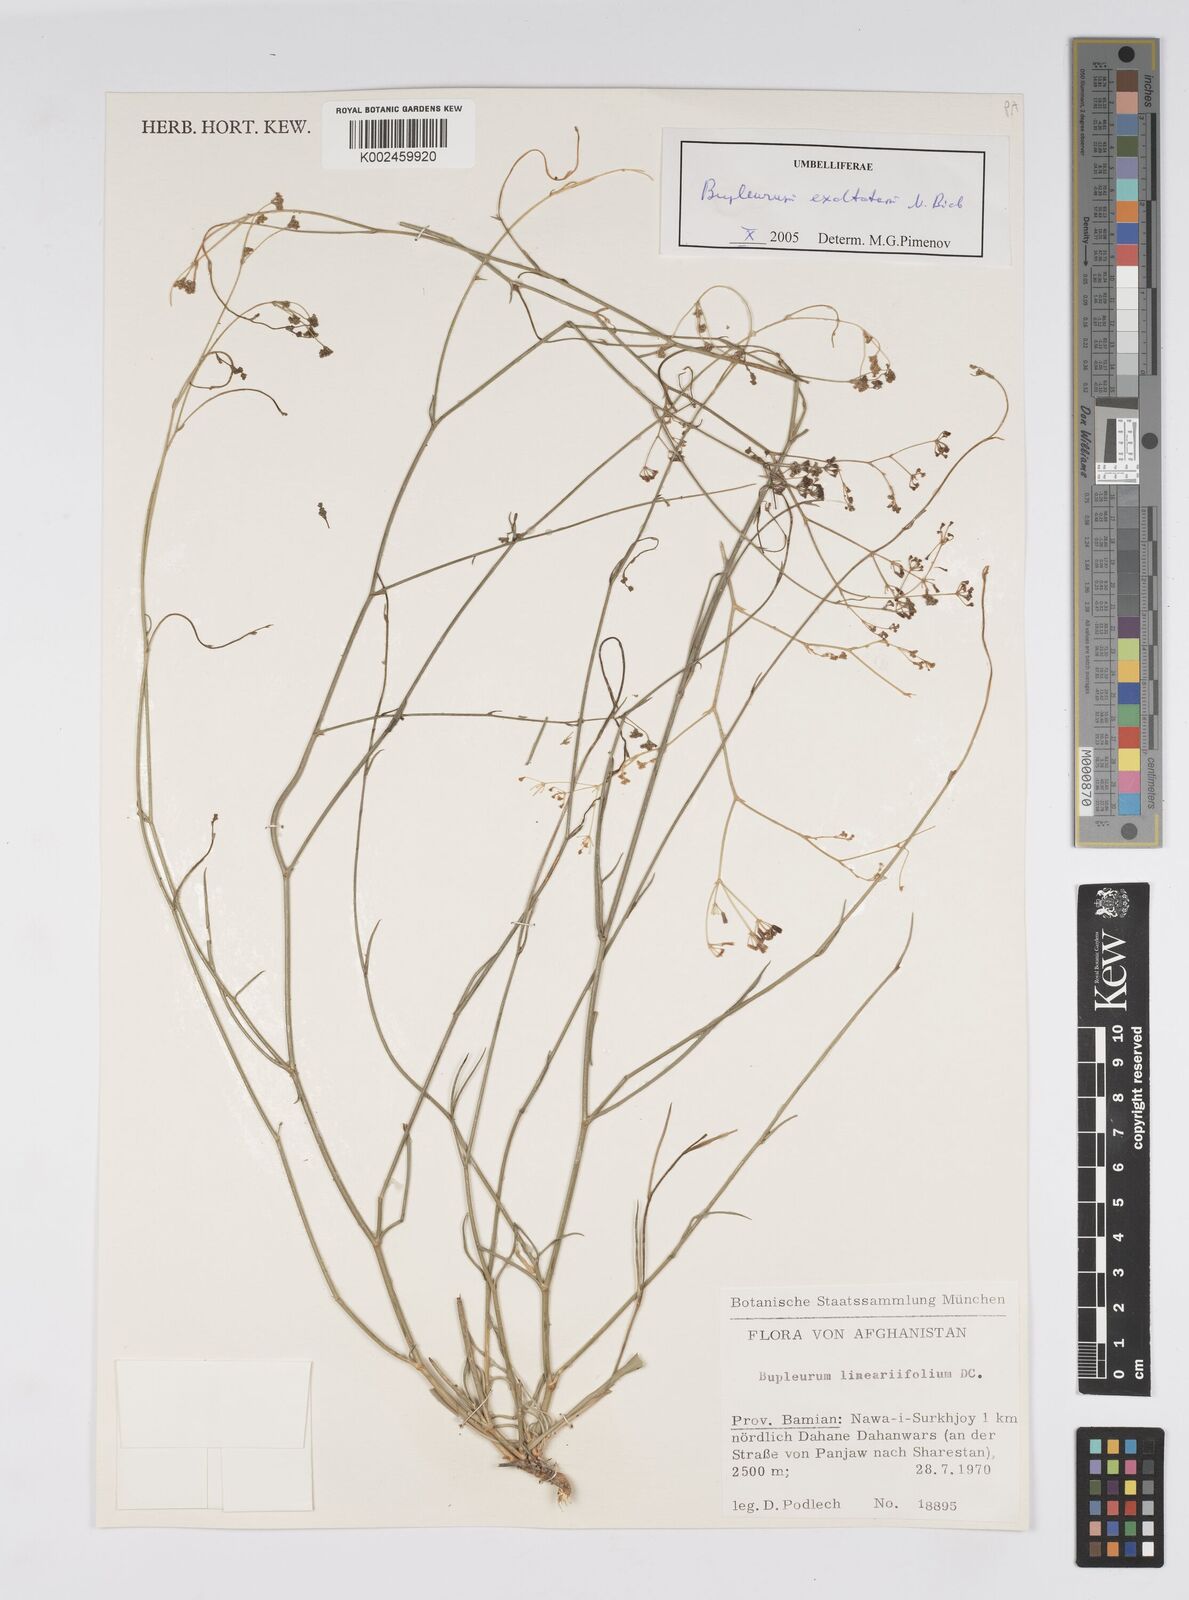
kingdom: Plantae
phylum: Tracheophyta
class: Magnoliopsida
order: Apiales
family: Apiaceae
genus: Bupleurum
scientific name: Bupleurum falcatum
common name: Sickle-leaved hare's-ear
